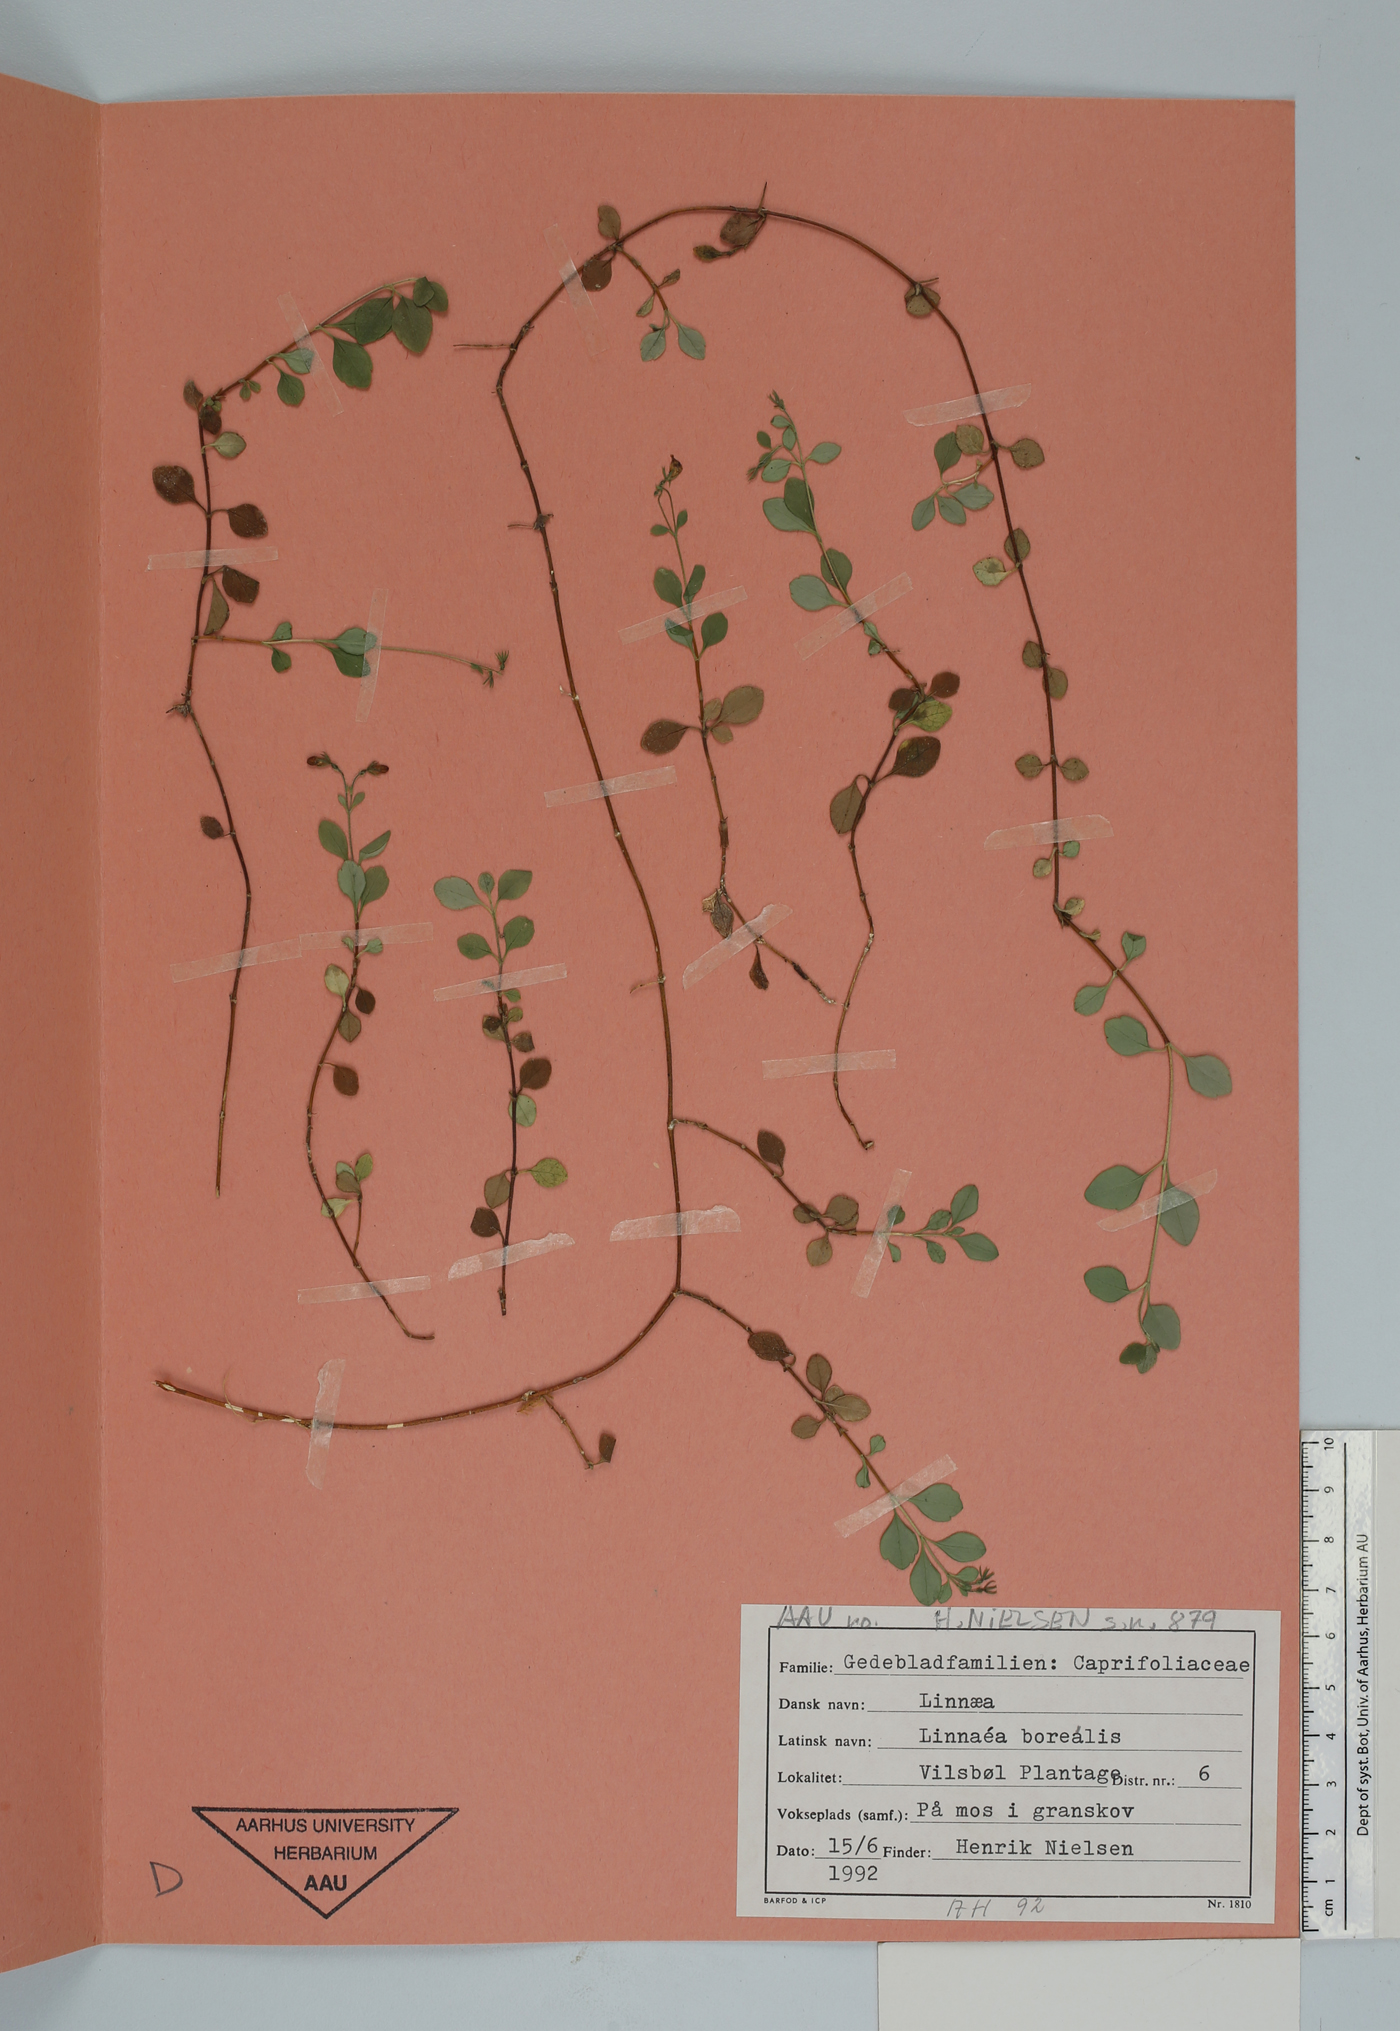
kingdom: Plantae
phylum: Tracheophyta
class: Magnoliopsida
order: Dipsacales
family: Caprifoliaceae
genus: Linnaea
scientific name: Linnaea borealis
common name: Twinflower
